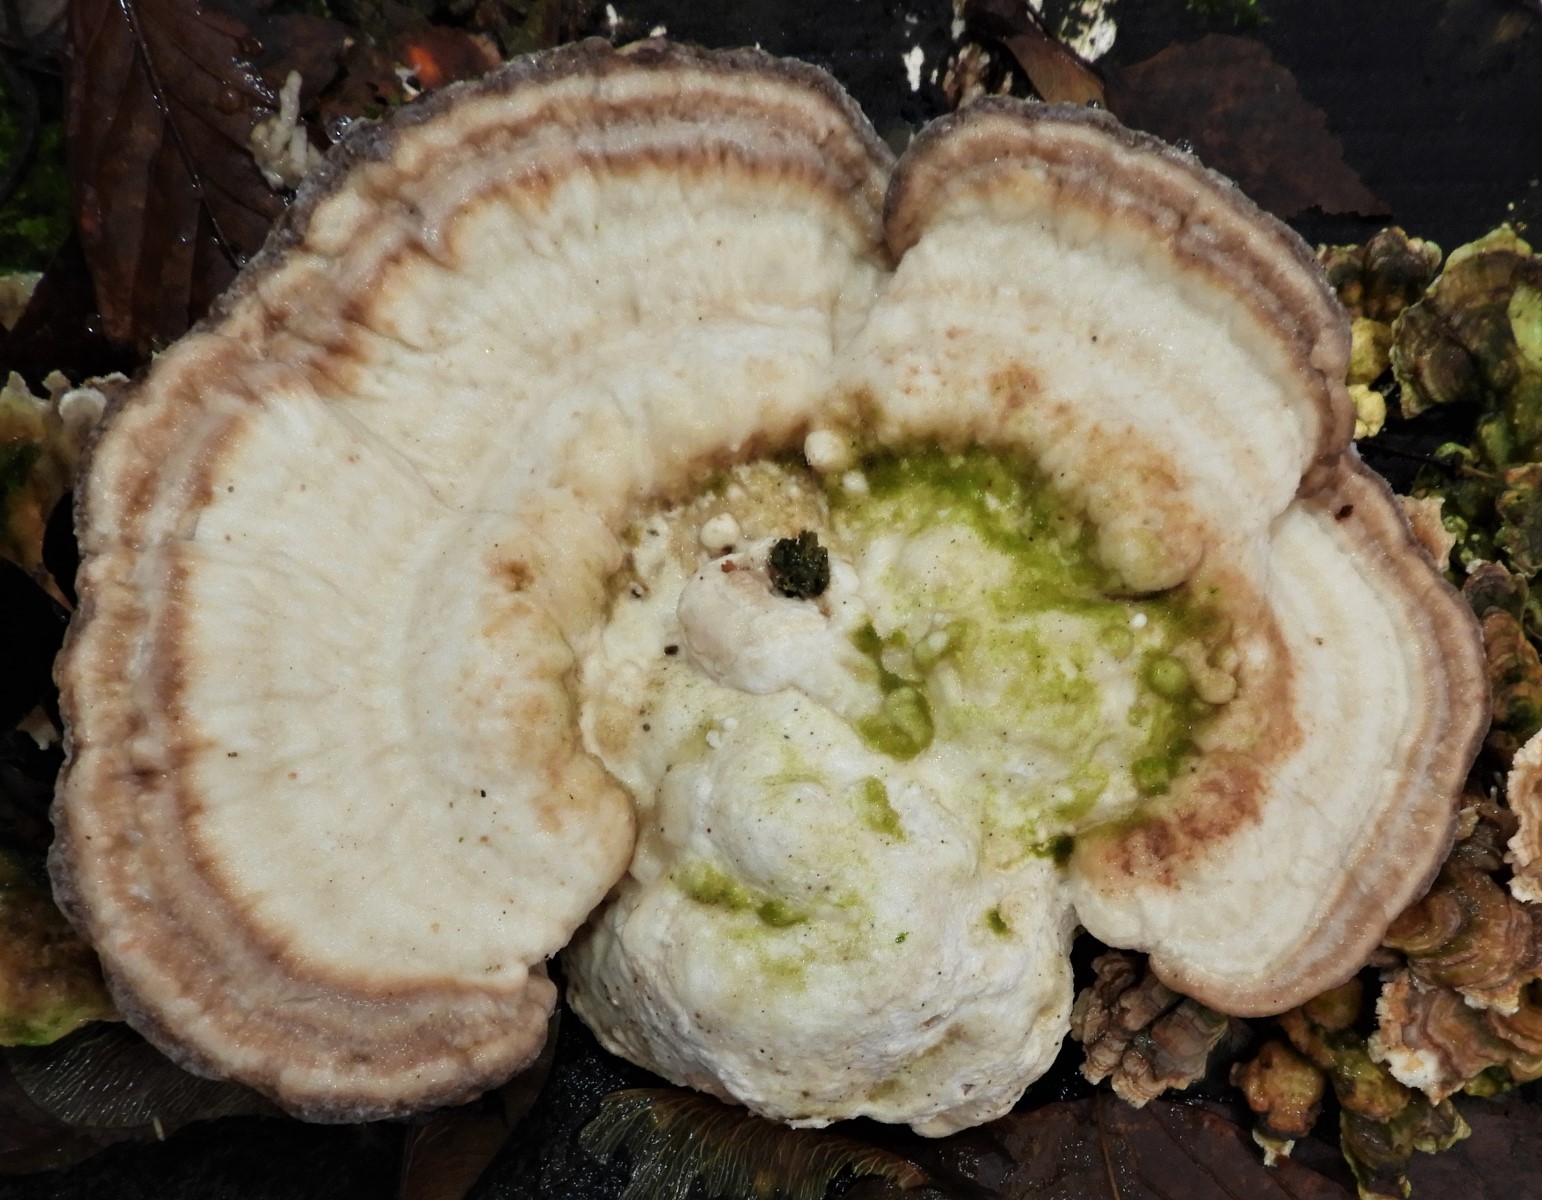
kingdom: Fungi
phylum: Basidiomycota
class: Agaricomycetes
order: Polyporales
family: Polyporaceae
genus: Trametes
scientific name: Trametes gibbosa
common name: puklet læderporesvamp
